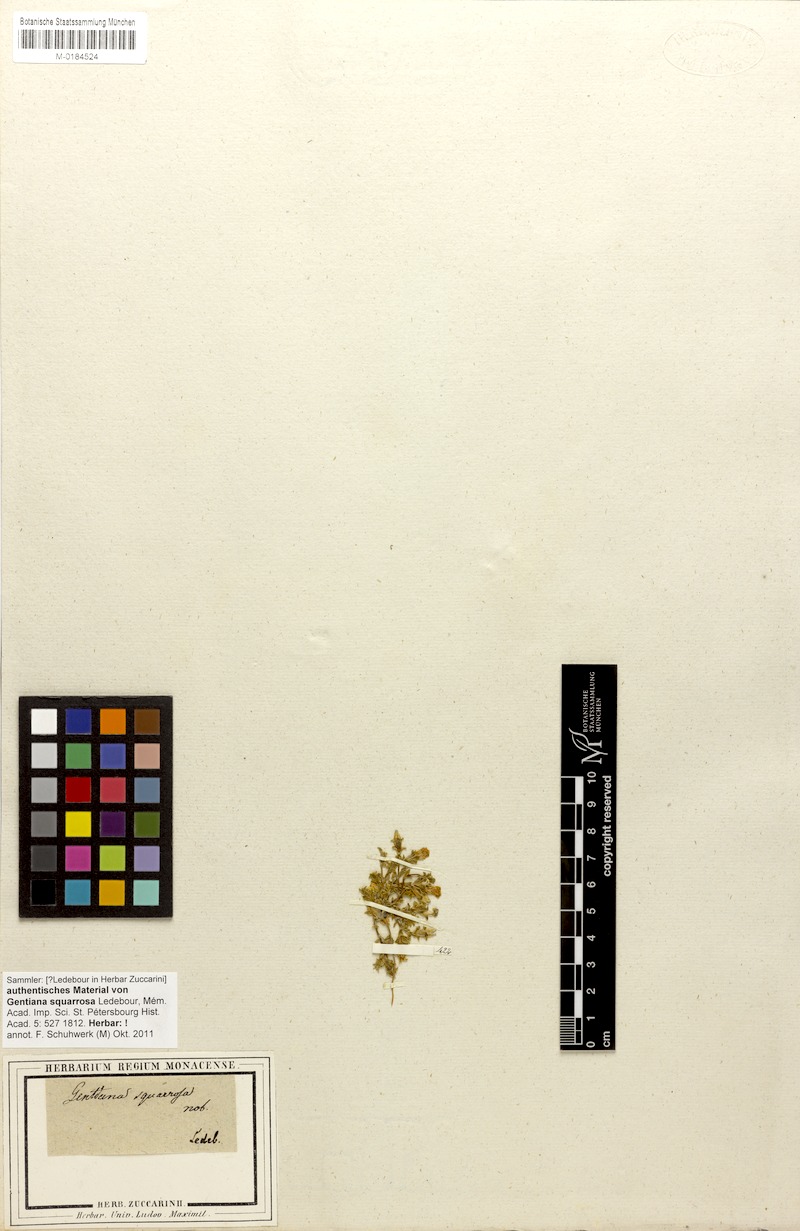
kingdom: Plantae
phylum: Tracheophyta
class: Magnoliopsida
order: Gentianales
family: Gentianaceae
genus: Gentiana
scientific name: Gentiana squarrosa
